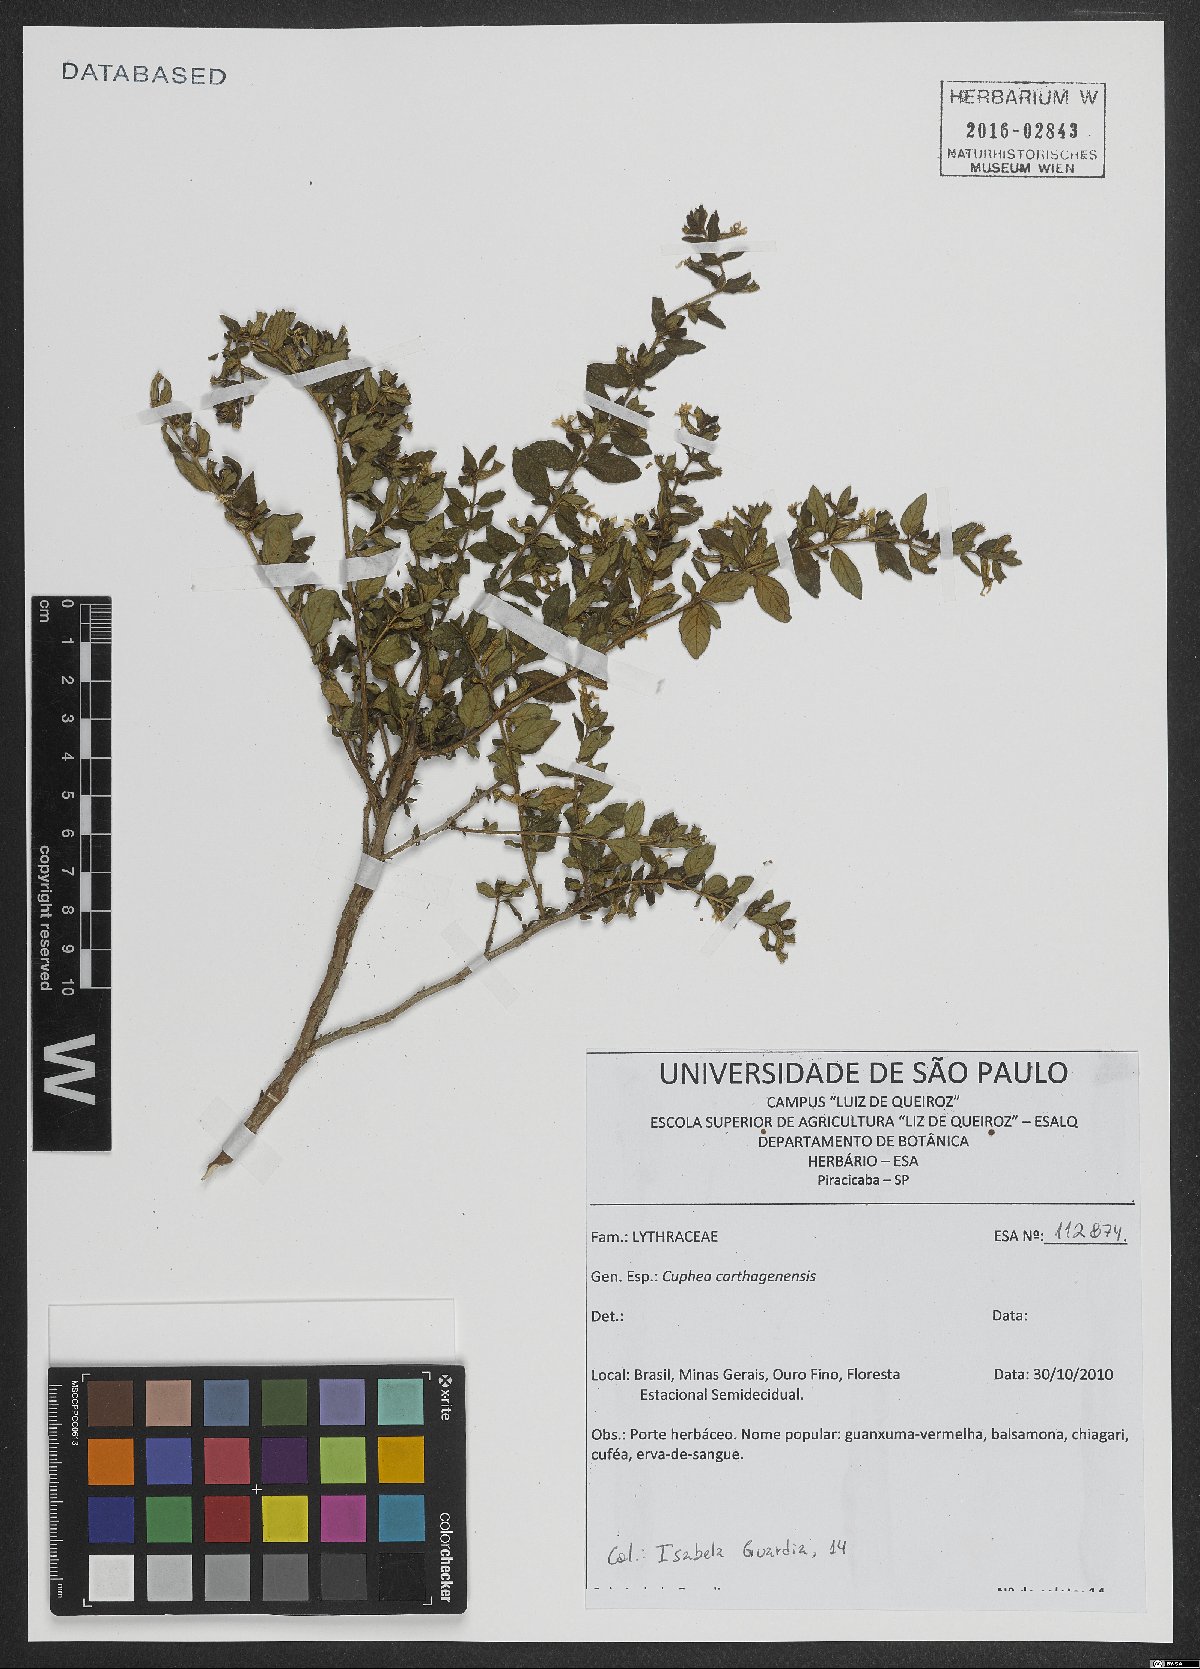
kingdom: Plantae
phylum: Tracheophyta
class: Magnoliopsida
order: Myrtales
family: Lythraceae
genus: Cuphea
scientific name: Cuphea carthagenensis
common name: Colombian waxweed
